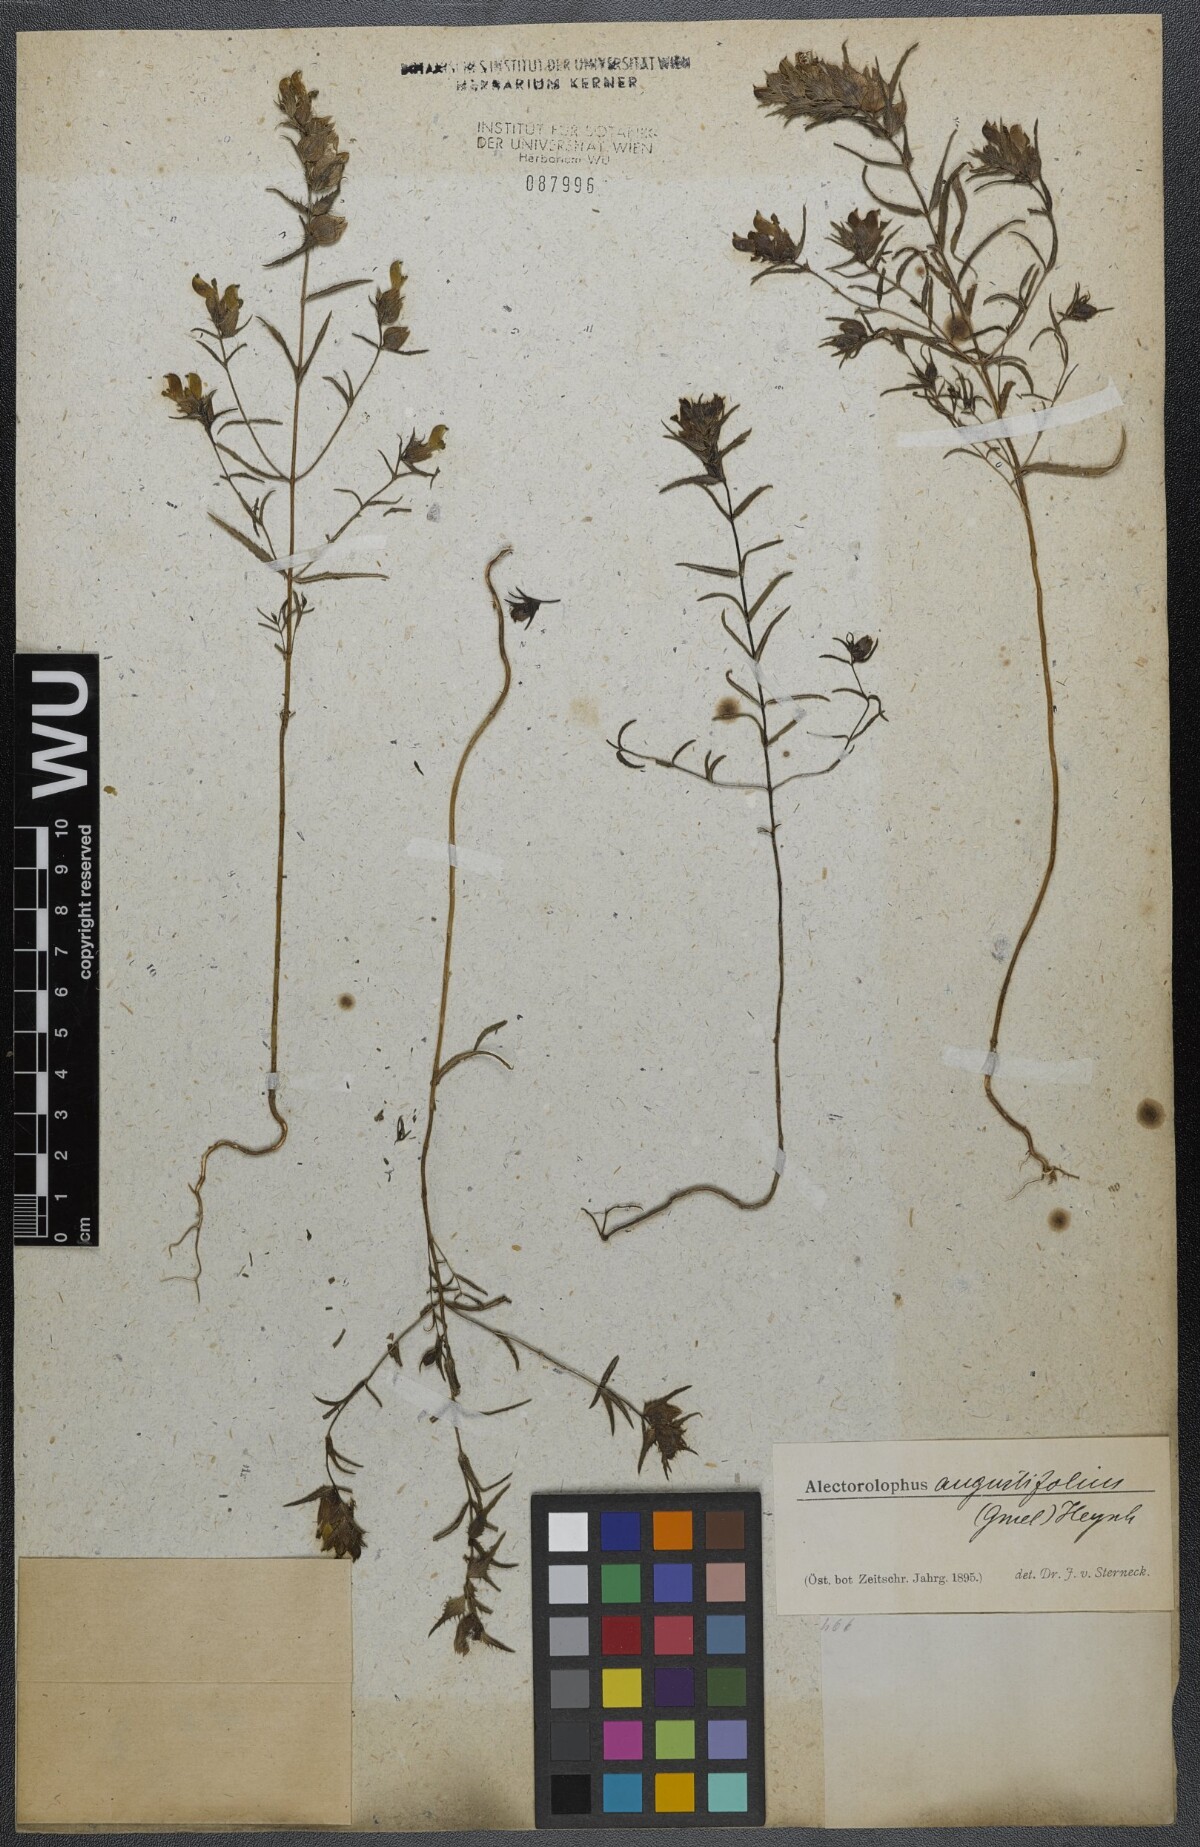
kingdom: Plantae
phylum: Tracheophyta
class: Magnoliopsida
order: Lamiales
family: Orobanchaceae
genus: Rhinanthus
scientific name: Rhinanthus
